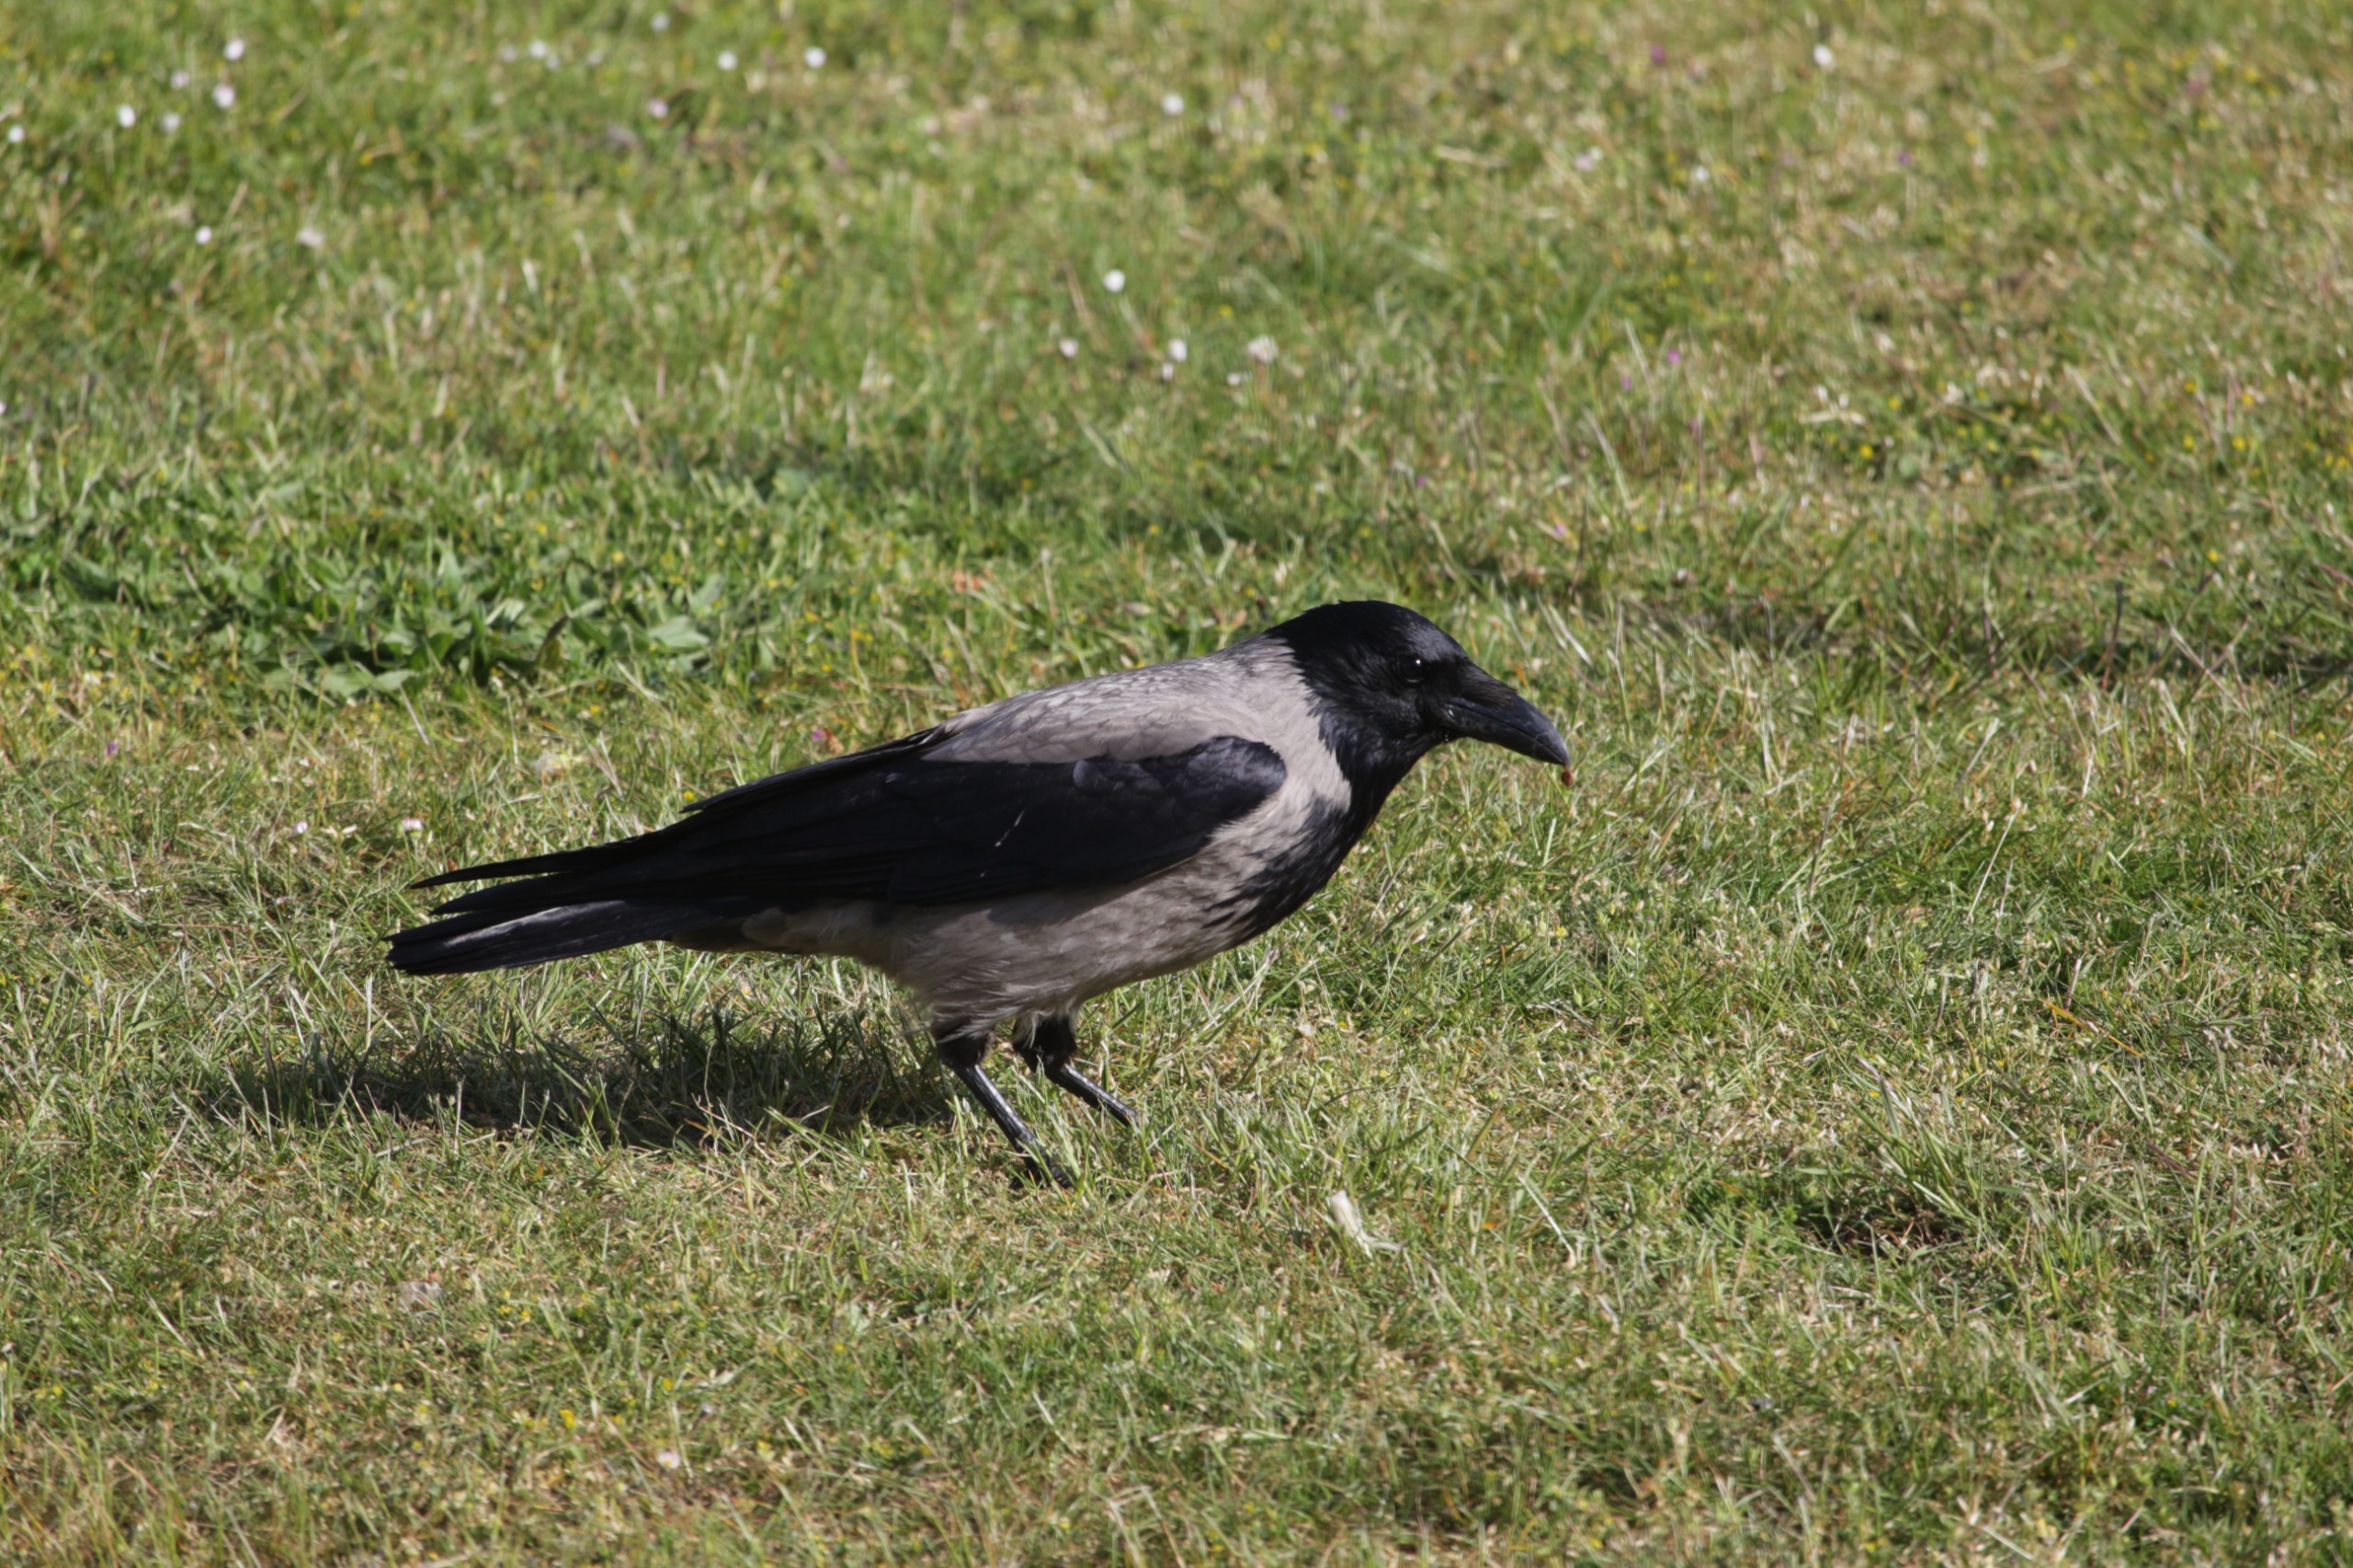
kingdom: Animalia
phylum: Chordata
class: Aves
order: Passeriformes
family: Corvidae
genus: Corvus
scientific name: Corvus cornix
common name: Gråkrage
